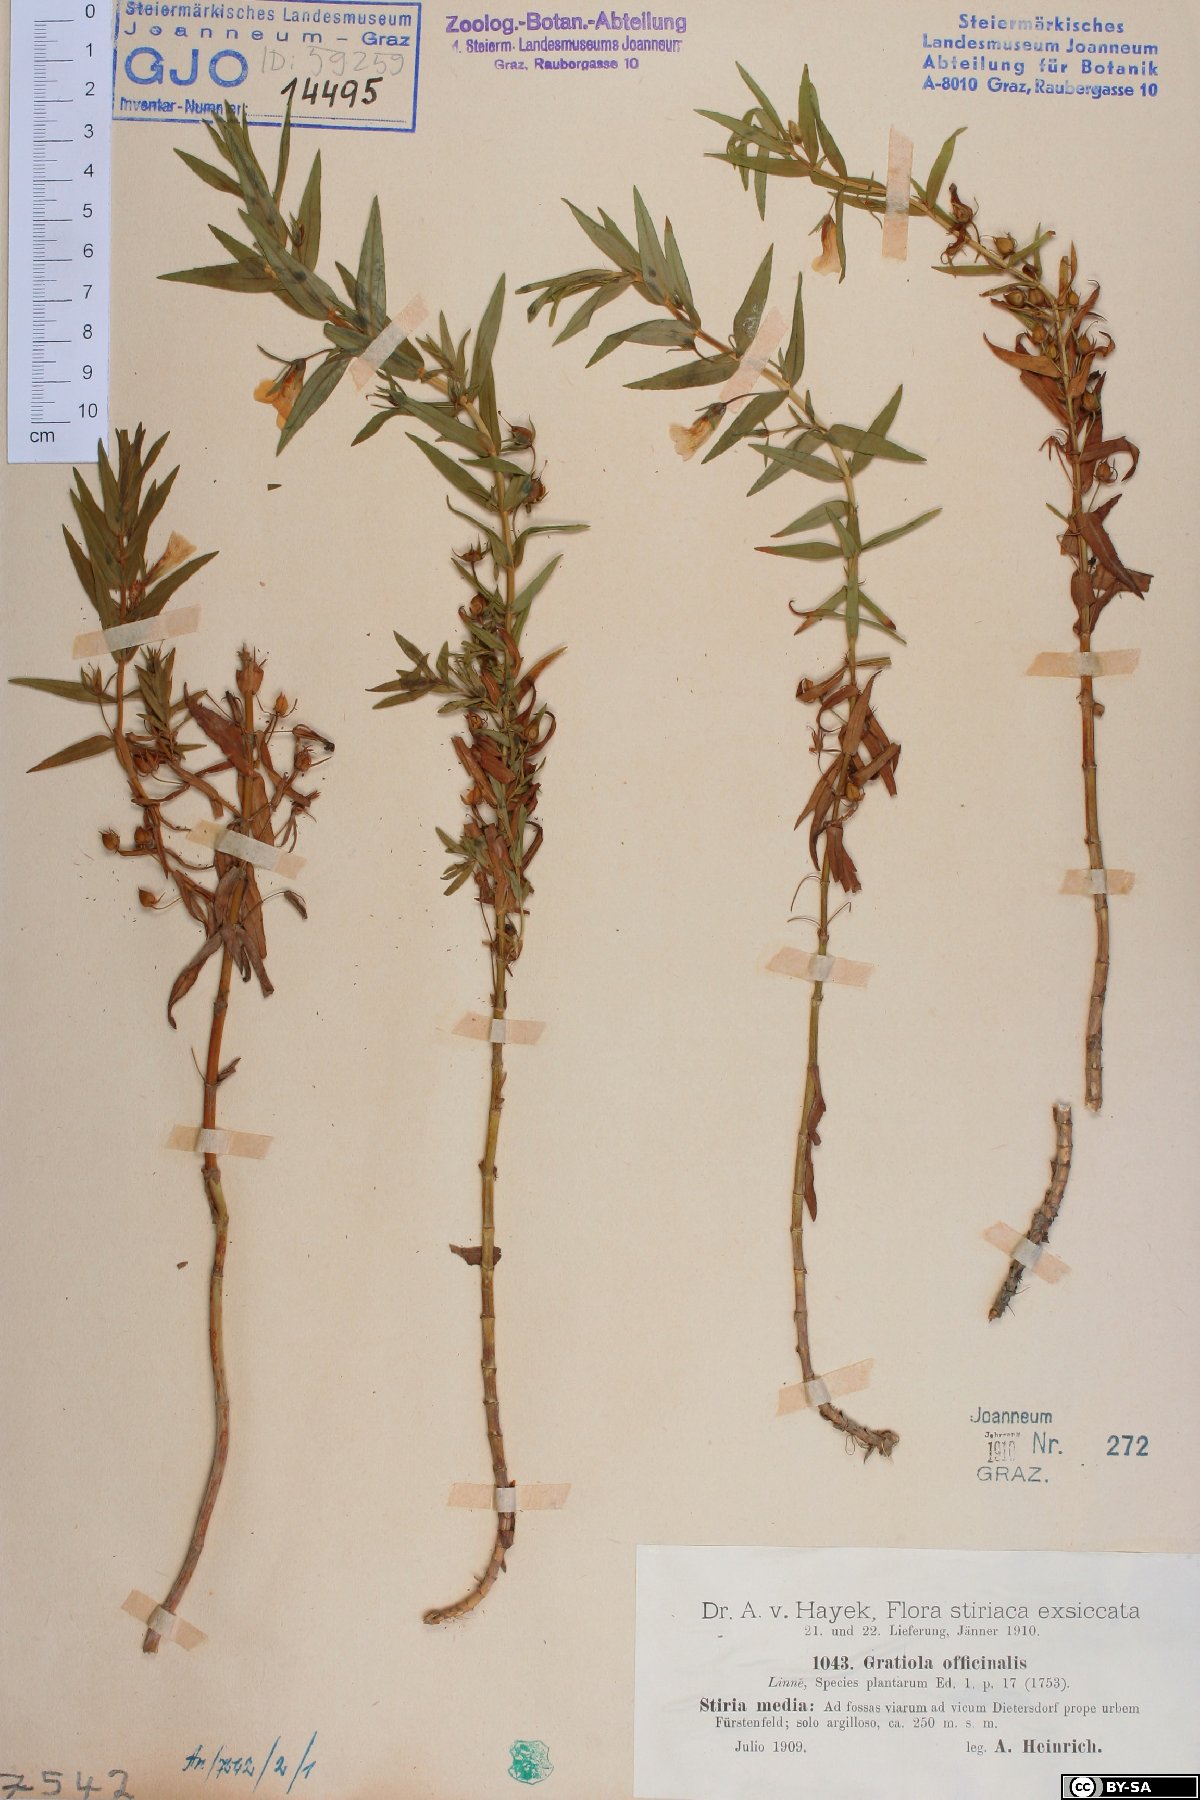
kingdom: Plantae
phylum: Tracheophyta
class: Magnoliopsida
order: Lamiales
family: Plantaginaceae
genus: Gratiola
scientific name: Gratiola officinalis
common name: Gratiola
